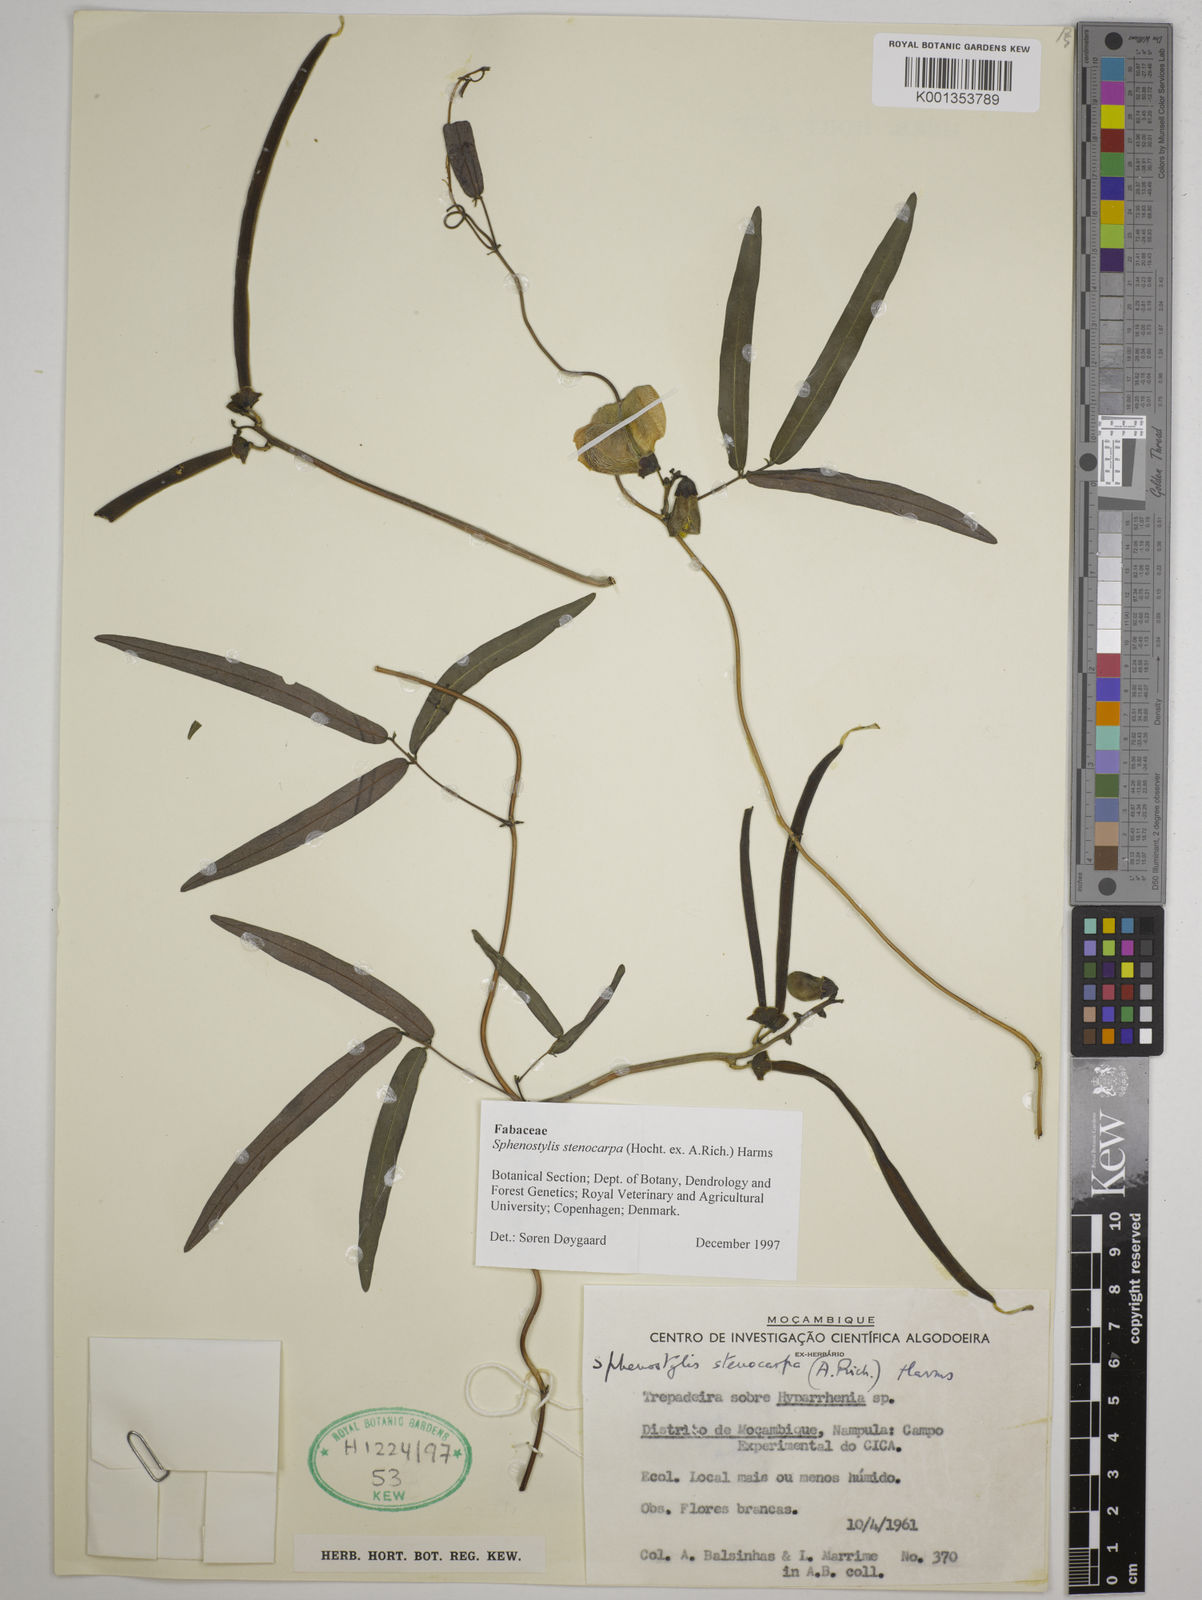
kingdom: Plantae
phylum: Tracheophyta
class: Magnoliopsida
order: Fabales
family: Fabaceae
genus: Sphenostylis
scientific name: Sphenostylis stenocarpa
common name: Yam-pea
